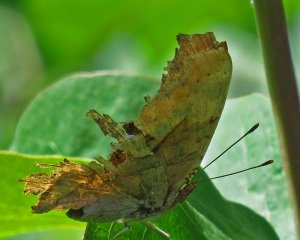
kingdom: Animalia
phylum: Arthropoda
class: Insecta
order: Lepidoptera
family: Nymphalidae
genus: Polygonia
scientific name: Polygonia interrogationis
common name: Question Mark
